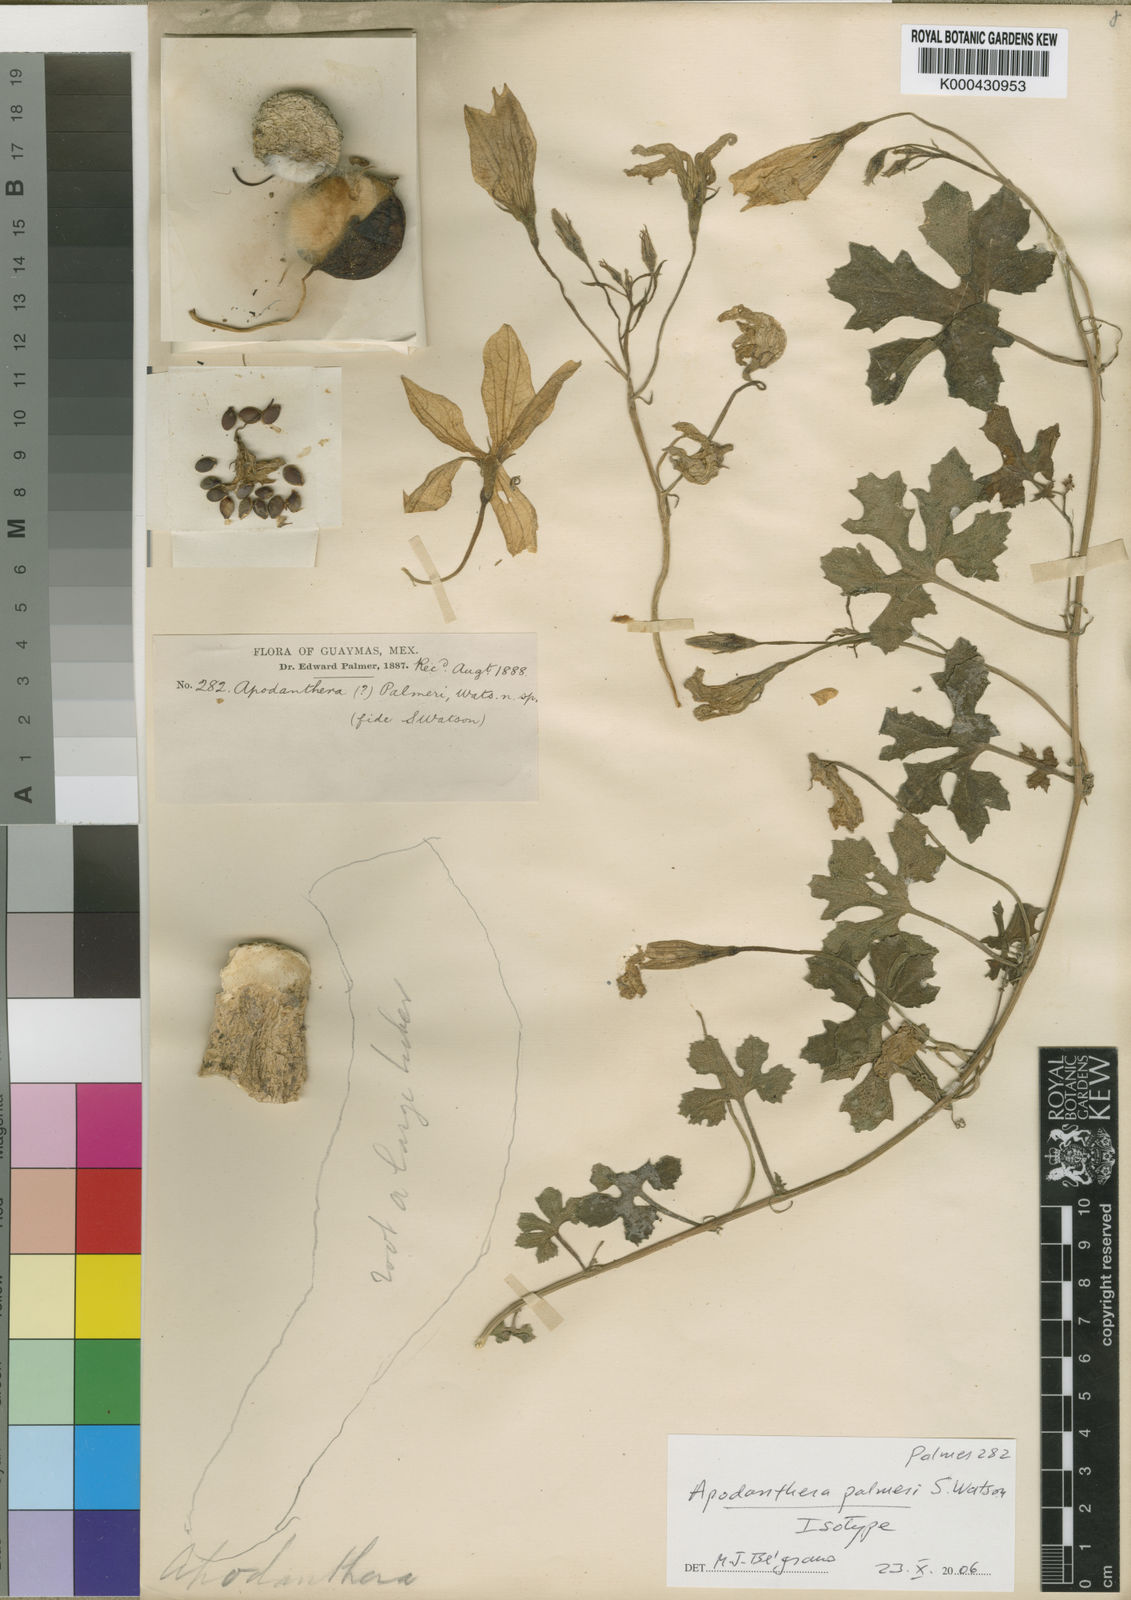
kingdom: Plantae
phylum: Tracheophyta
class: Magnoliopsida
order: Cucurbitales
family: Cucurbitaceae
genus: Apodanthera
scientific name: Apodanthera palmeri
